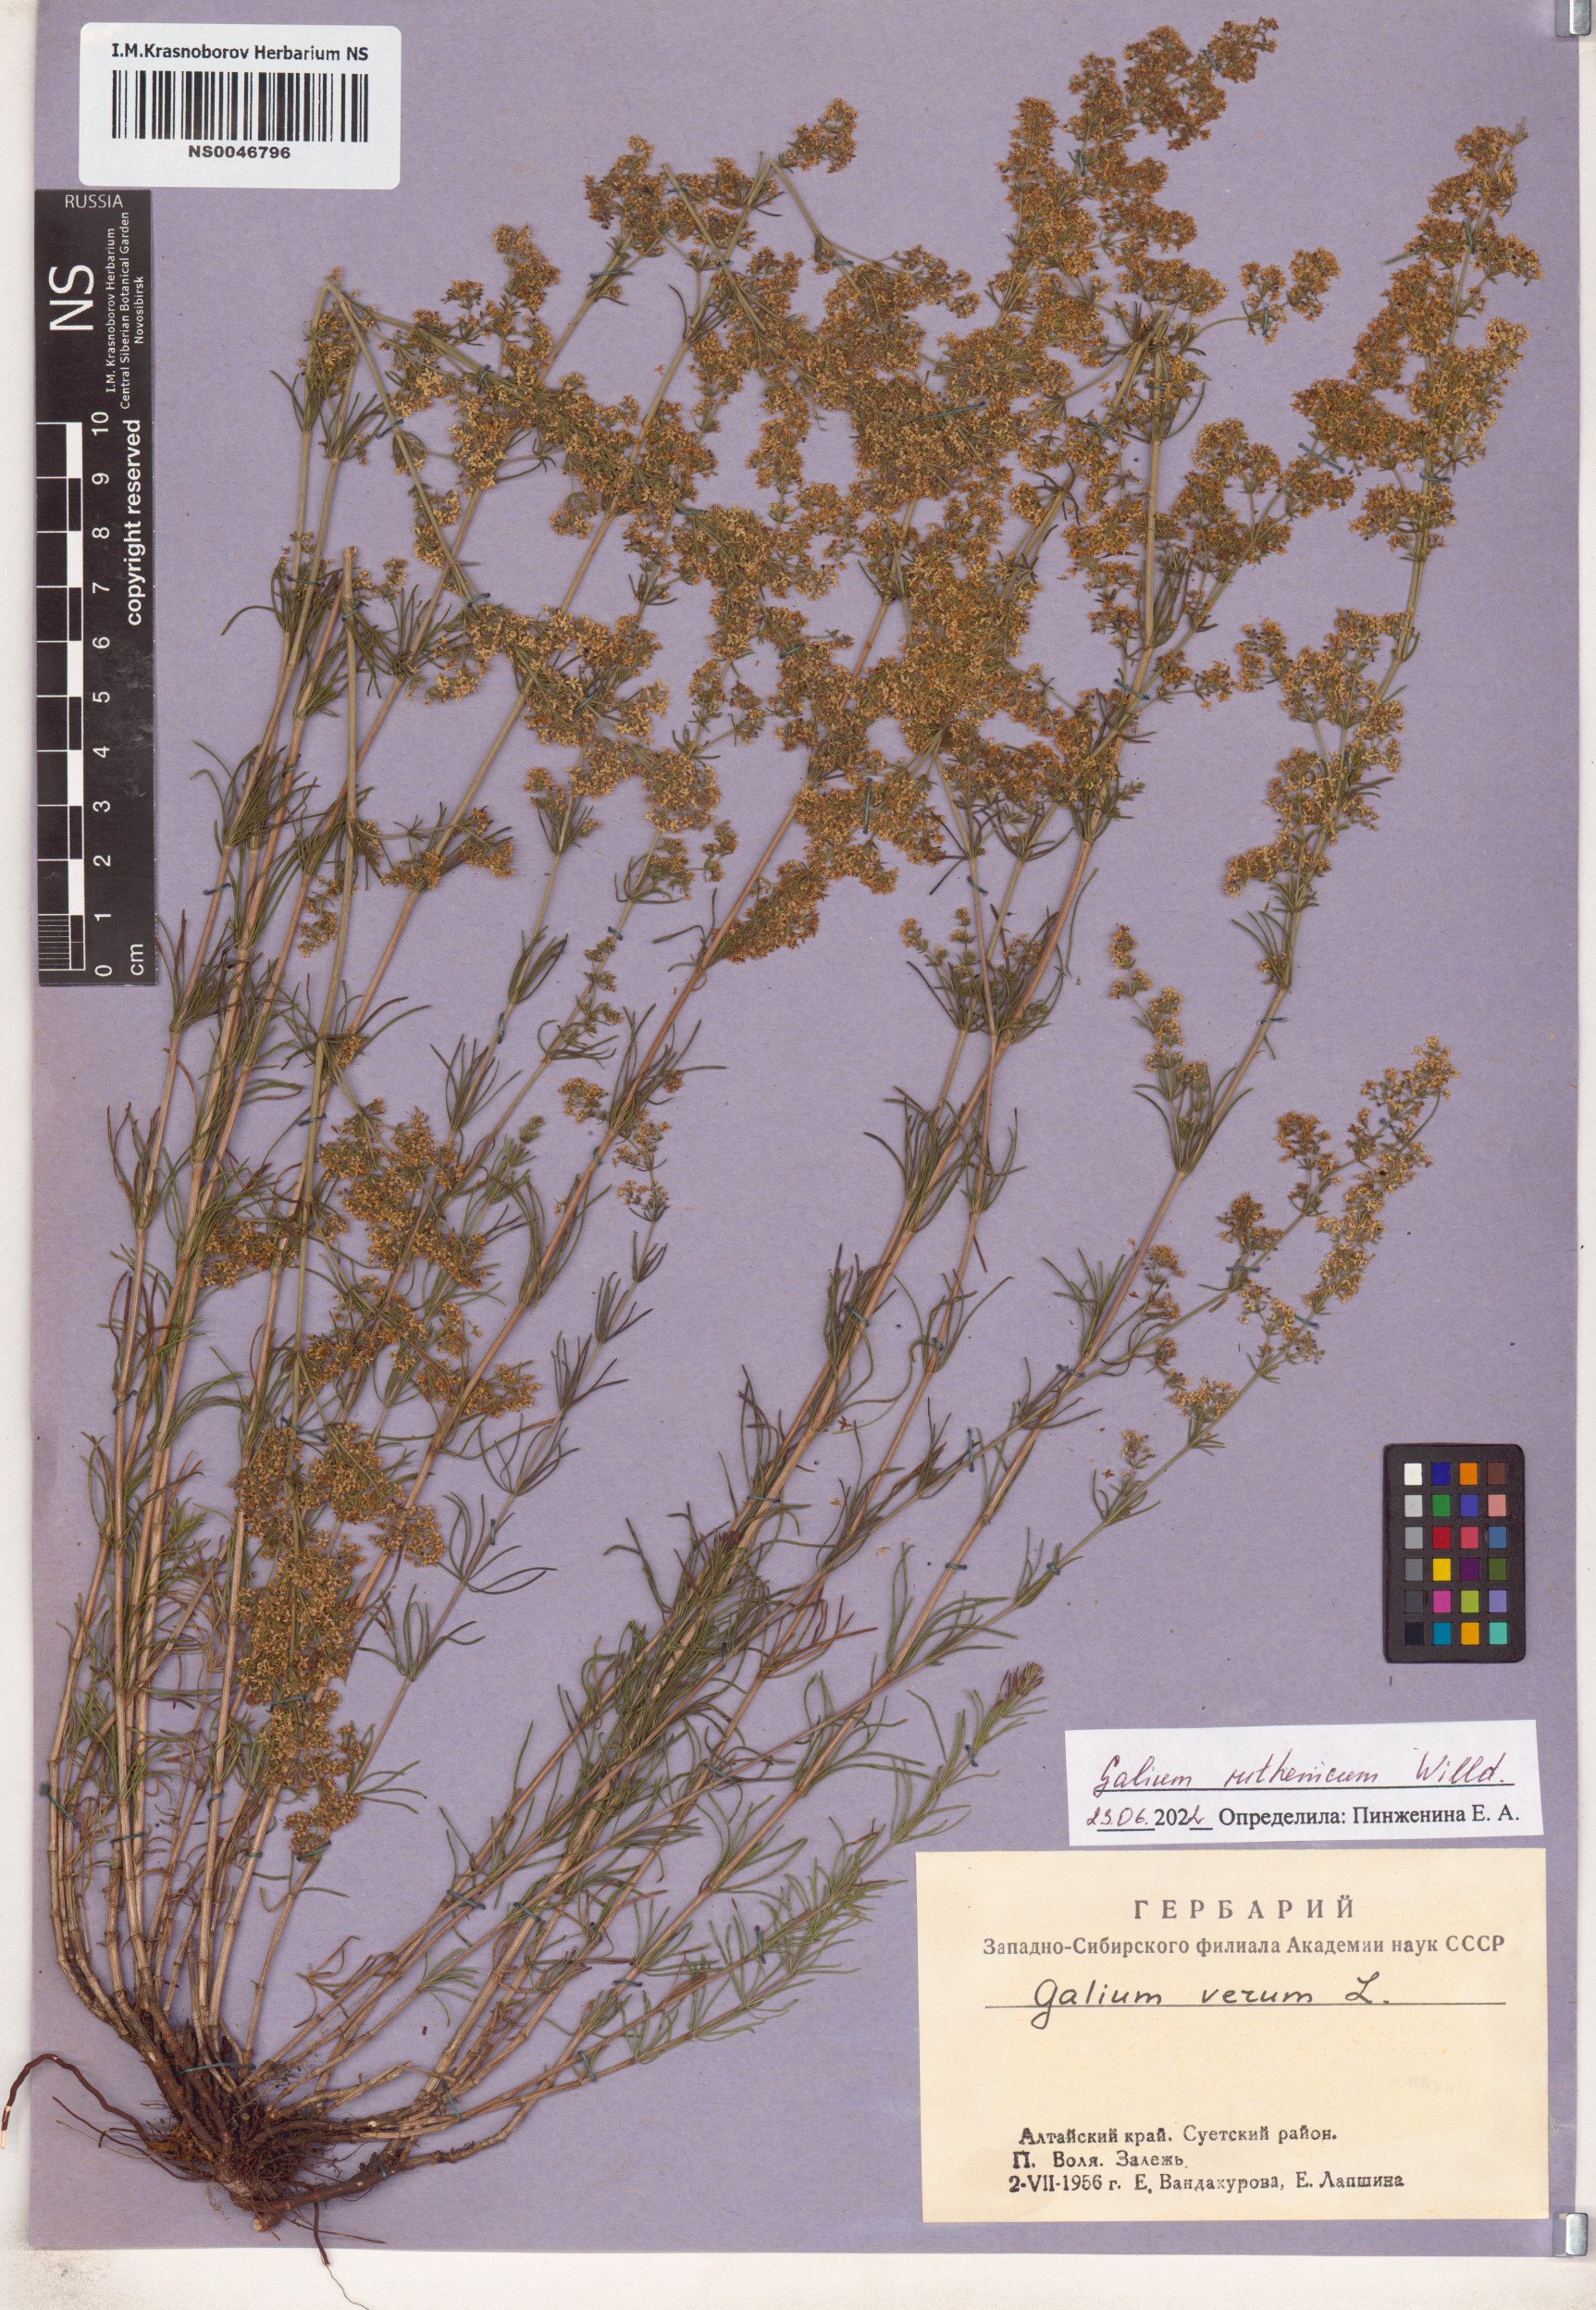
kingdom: Plantae
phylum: Tracheophyta
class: Magnoliopsida
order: Gentianales
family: Rubiaceae
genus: Galium
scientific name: Galium verum
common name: Lady's bedstraw
